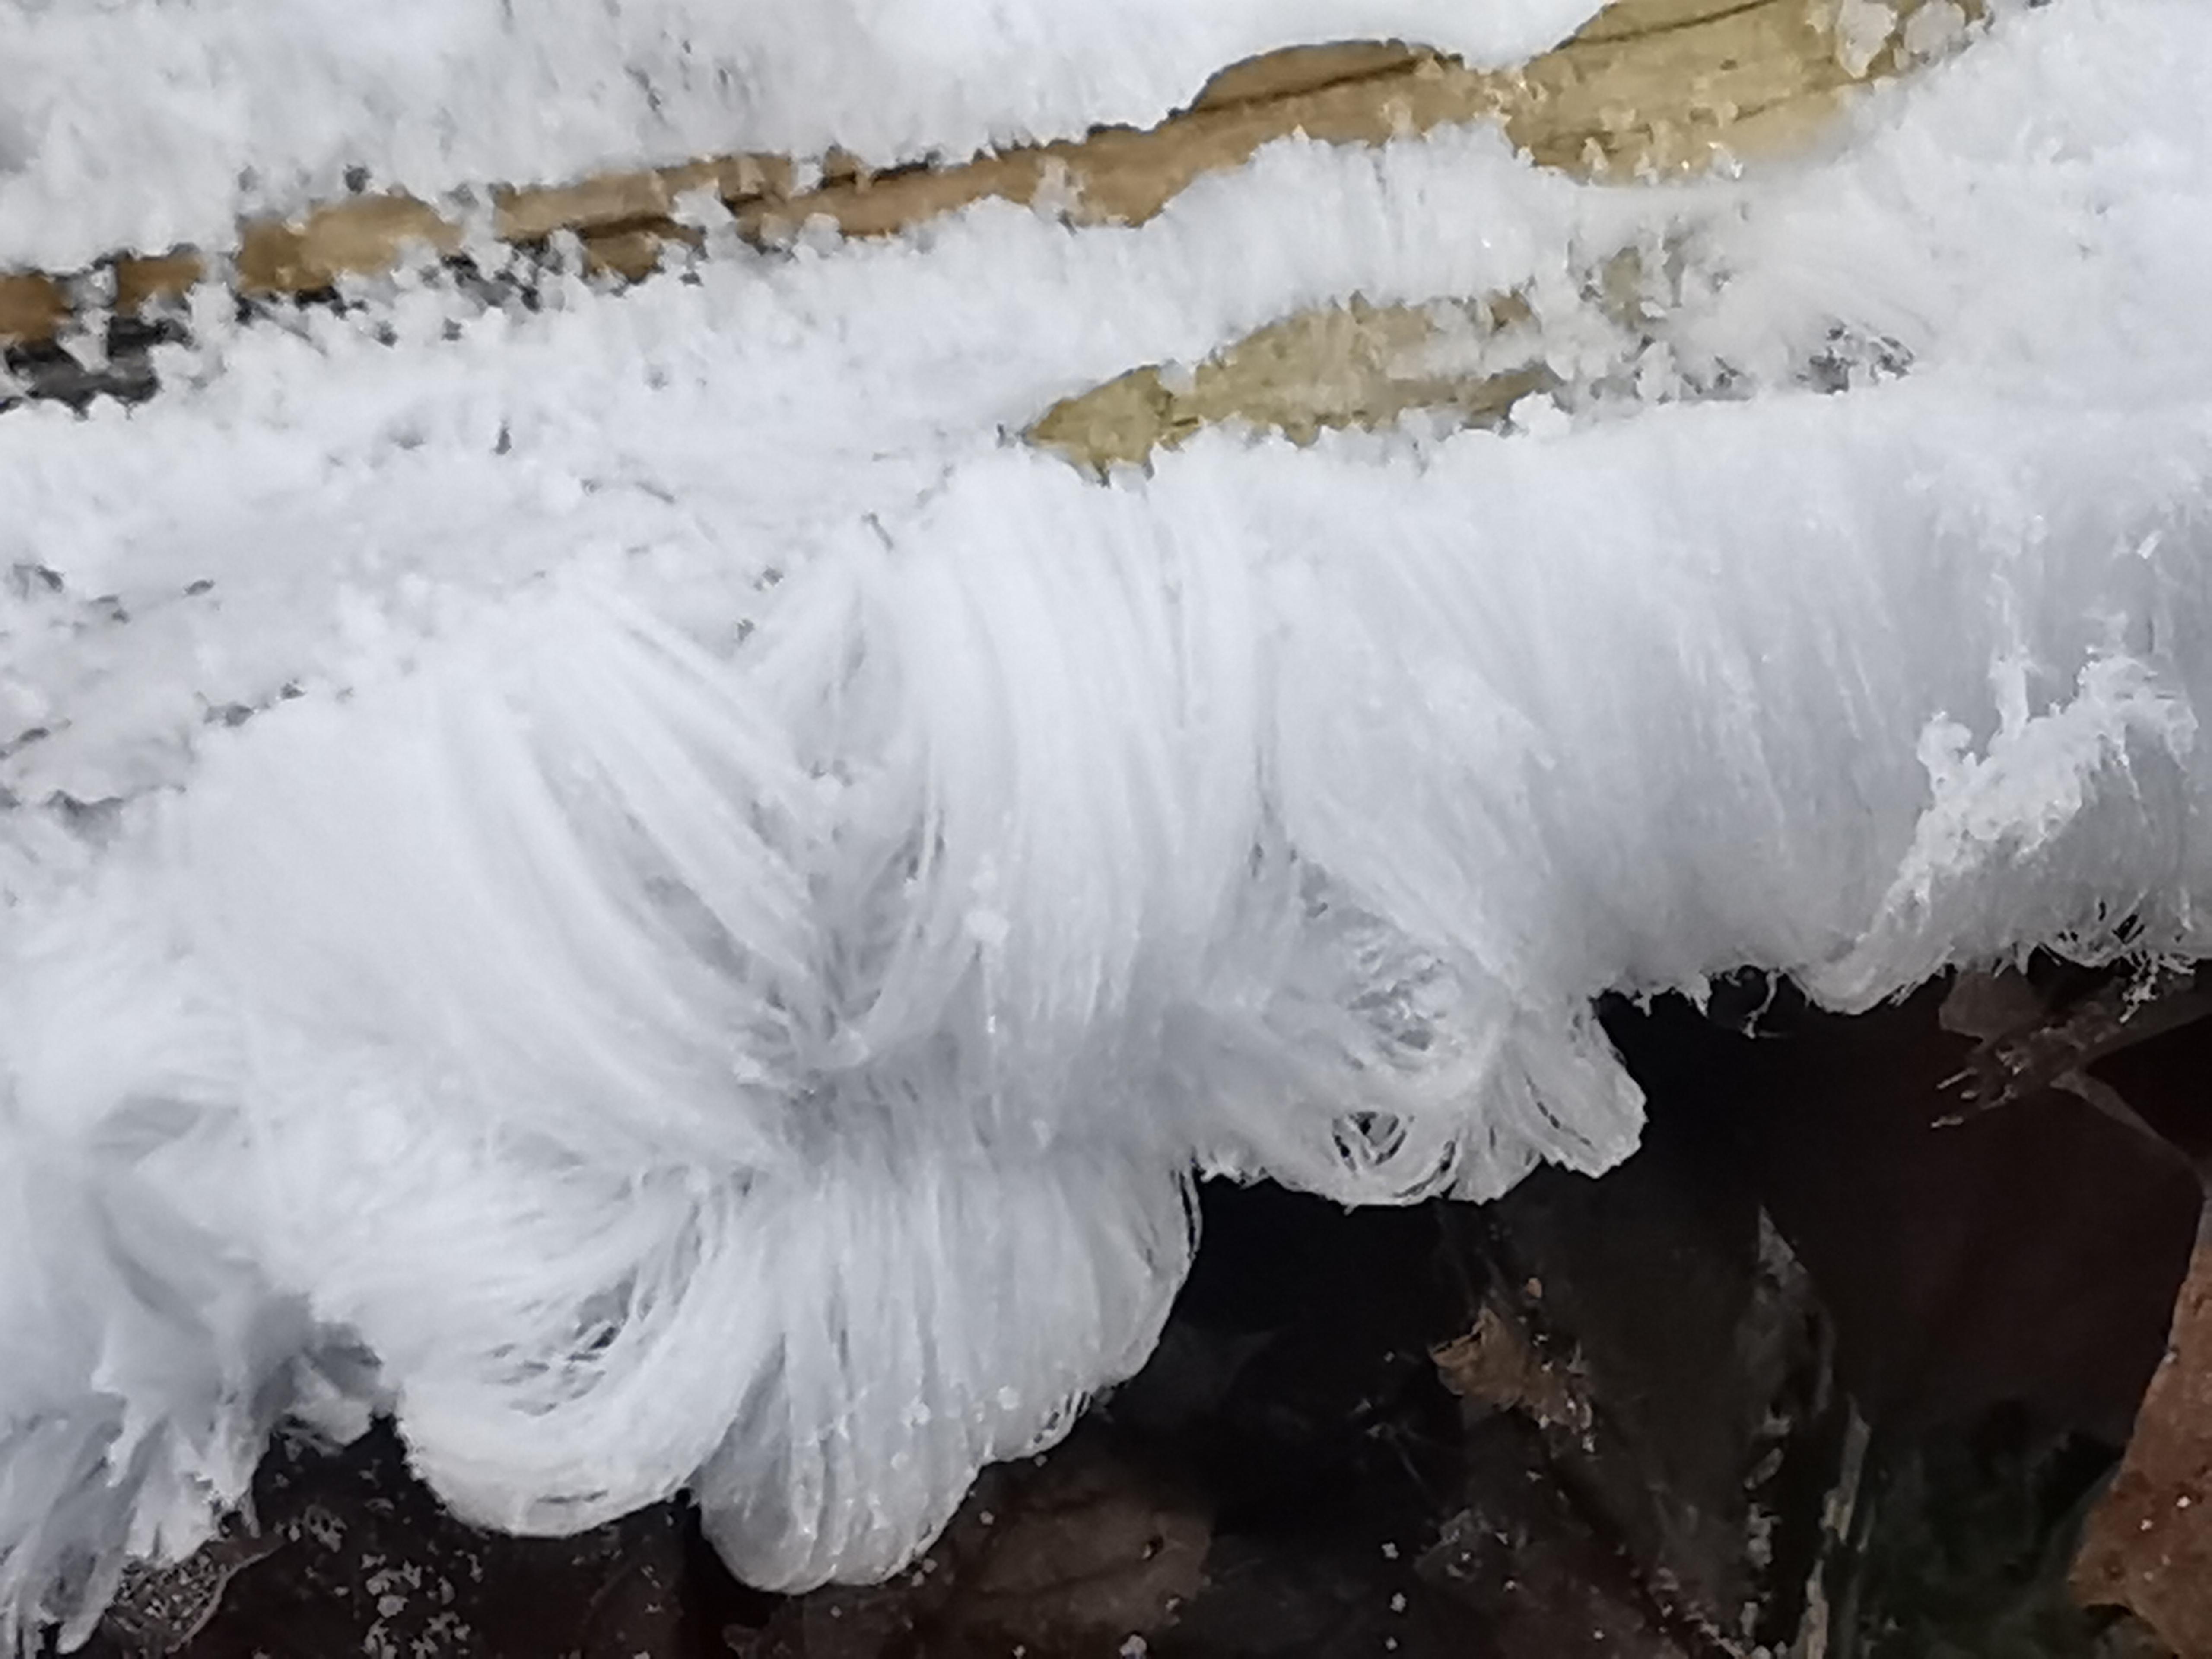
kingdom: Fungi
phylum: Basidiomycota
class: Tremellomycetes
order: Tremellales
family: Exidiaceae
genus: Exidiopsis
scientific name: Exidiopsis effusa
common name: smuk bævrehinde
